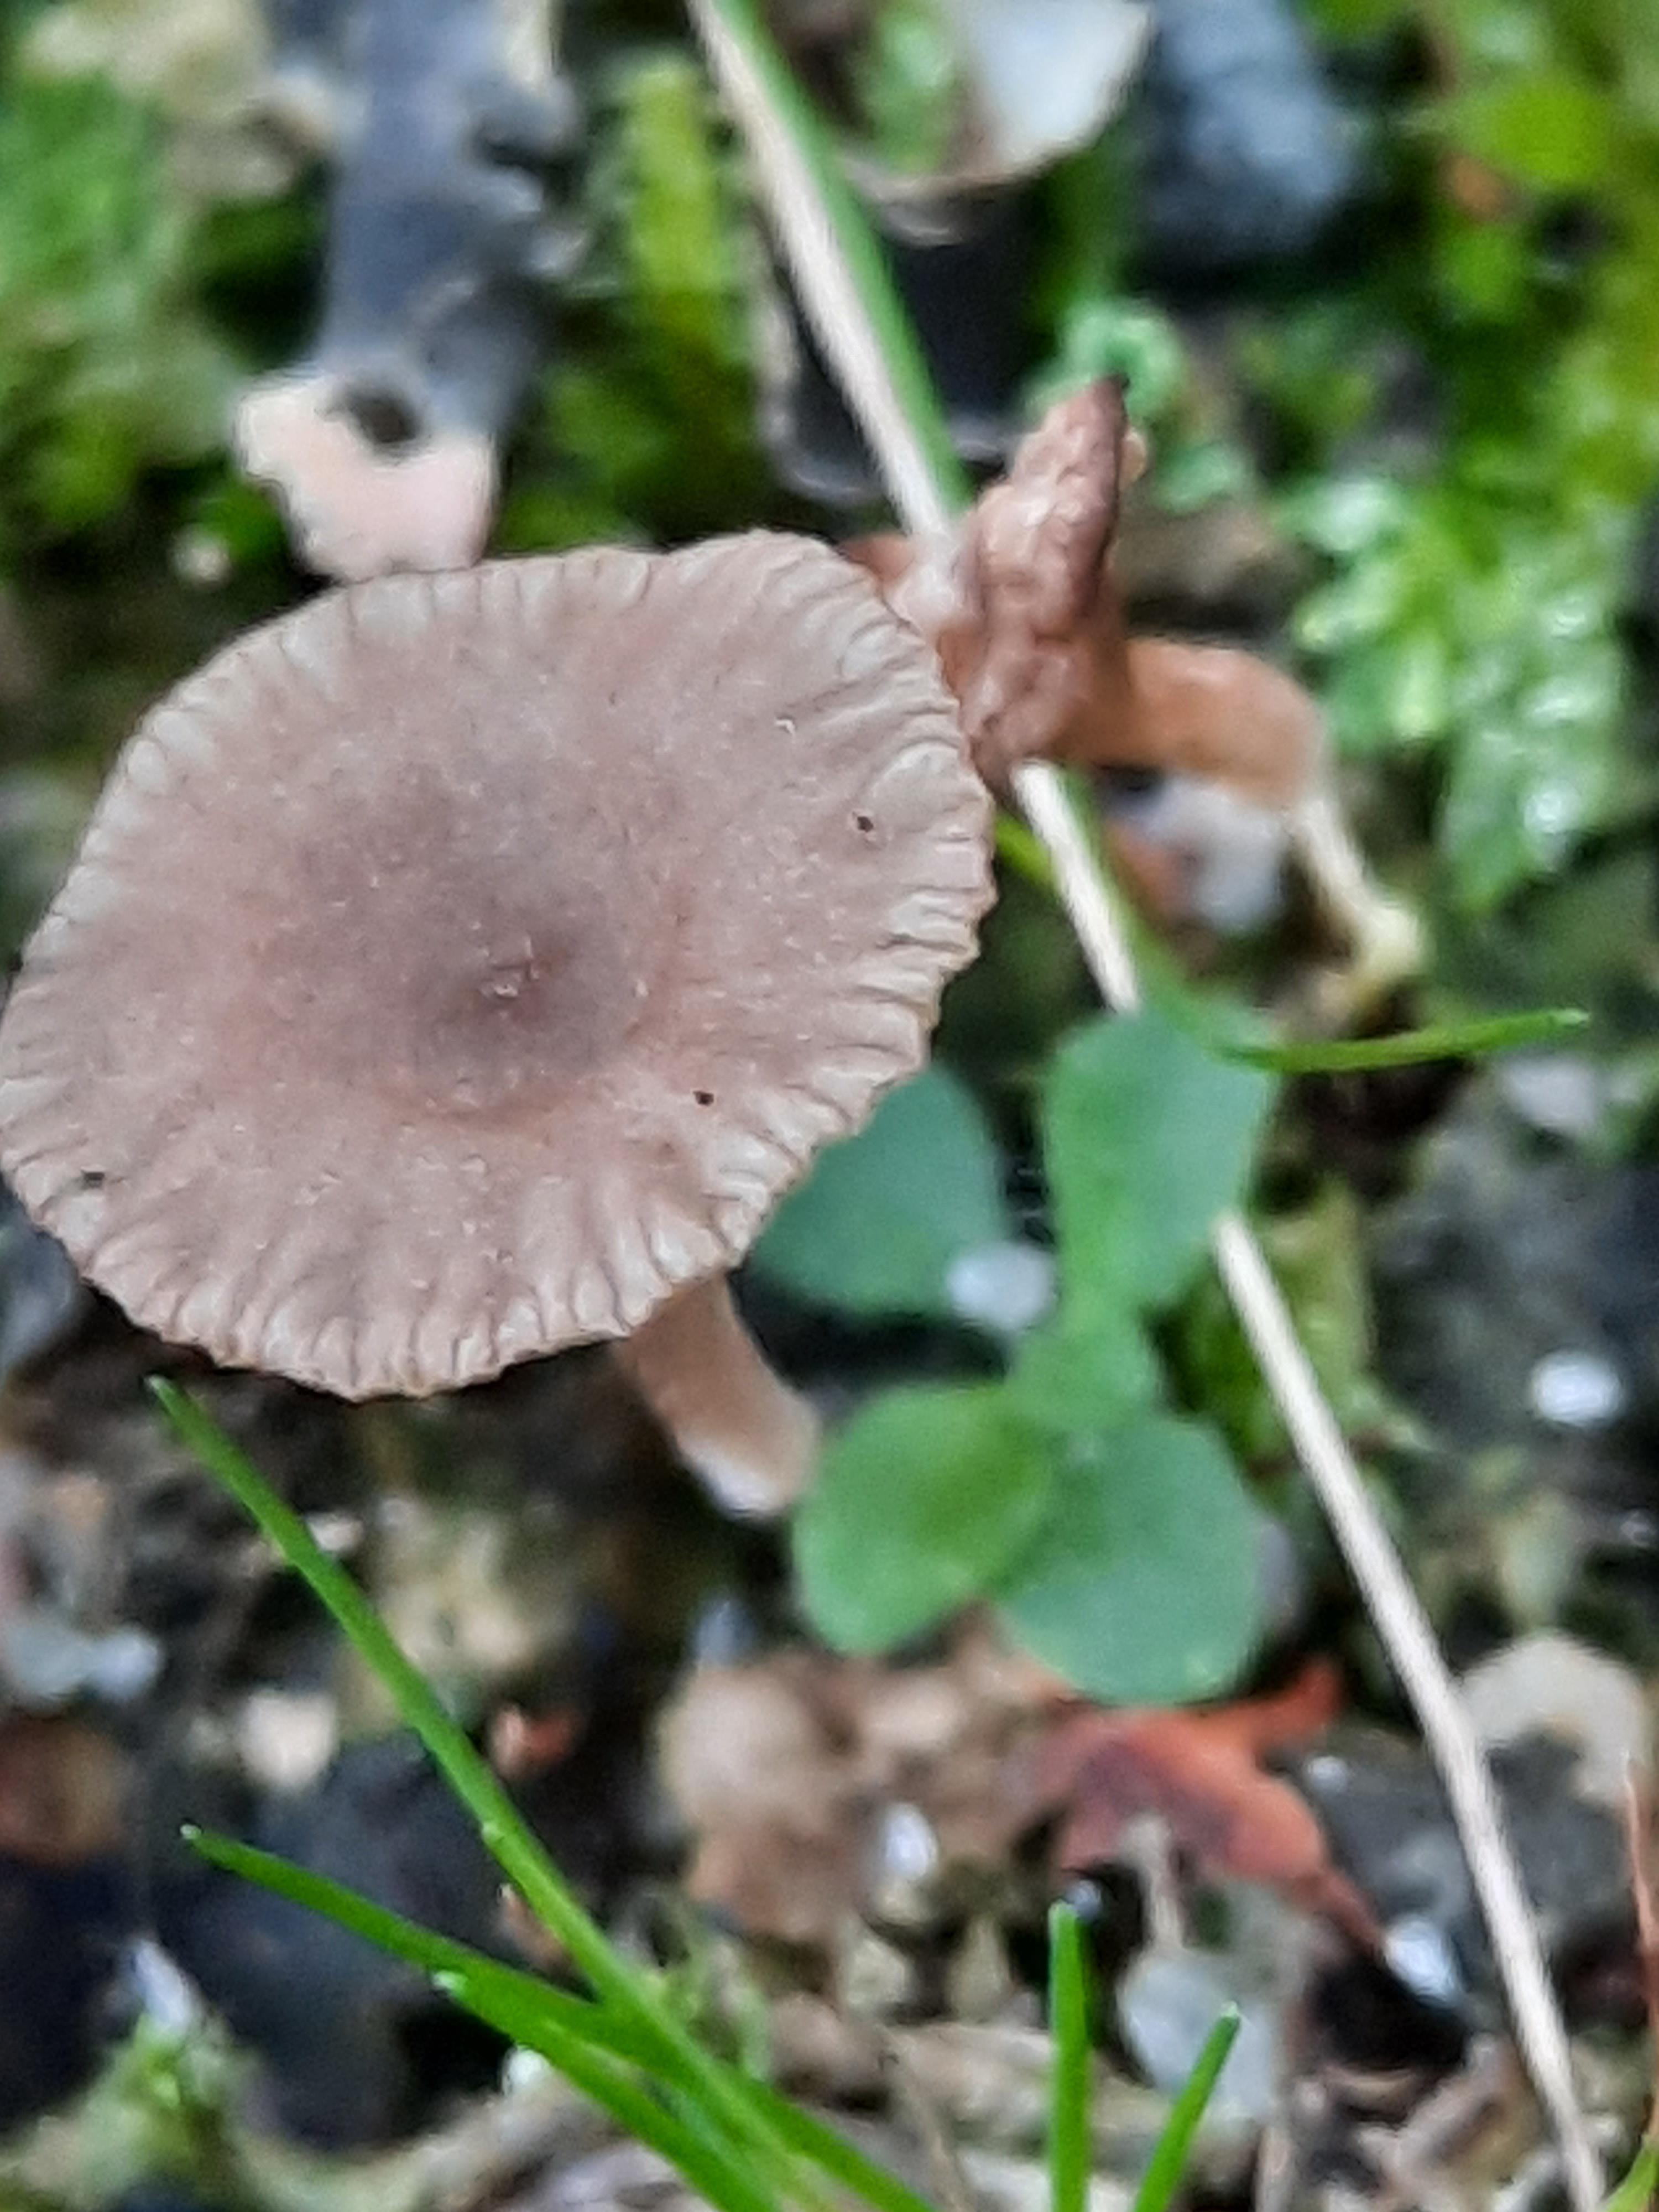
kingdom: Fungi
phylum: Basidiomycota
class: Agaricomycetes
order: Agaricales
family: Hygrophoraceae
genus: Arrhenia
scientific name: Arrhenia peltigerina
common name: skjoldlav-fontænehat
